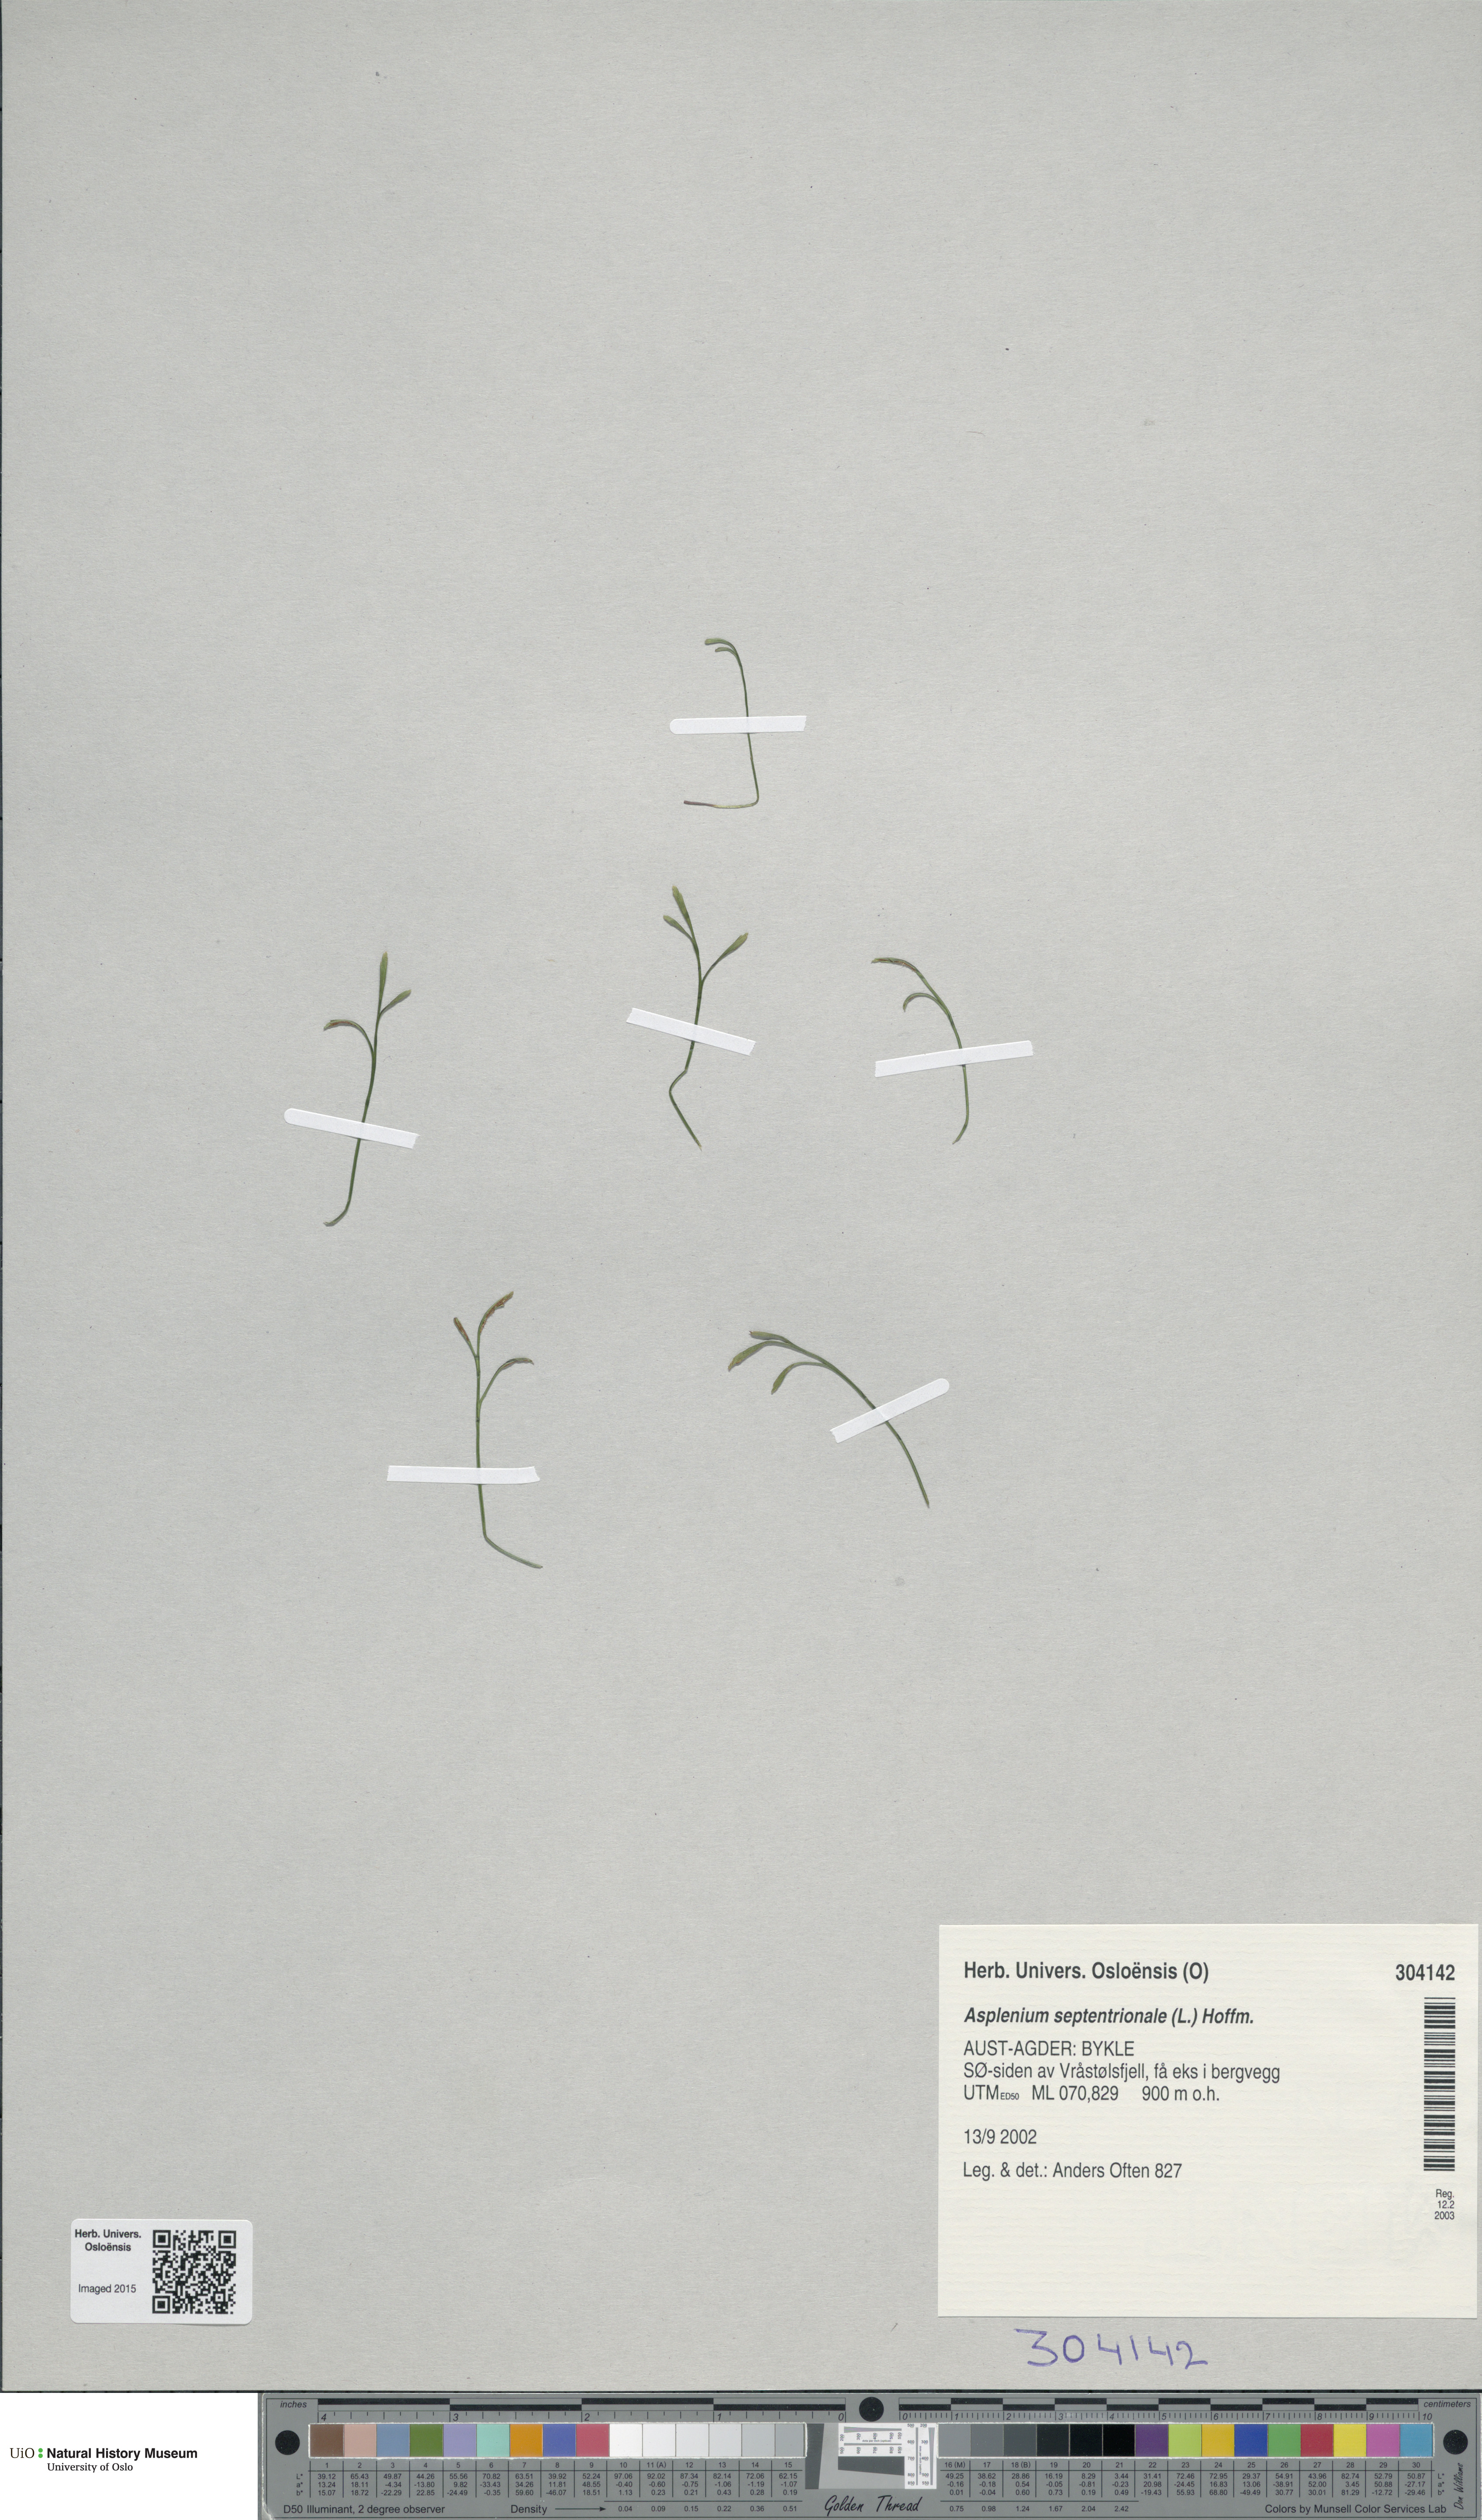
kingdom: Plantae
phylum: Tracheophyta
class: Polypodiopsida
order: Polypodiales
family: Aspleniaceae
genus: Asplenium
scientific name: Asplenium septentrionale
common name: Forked spleenwort
